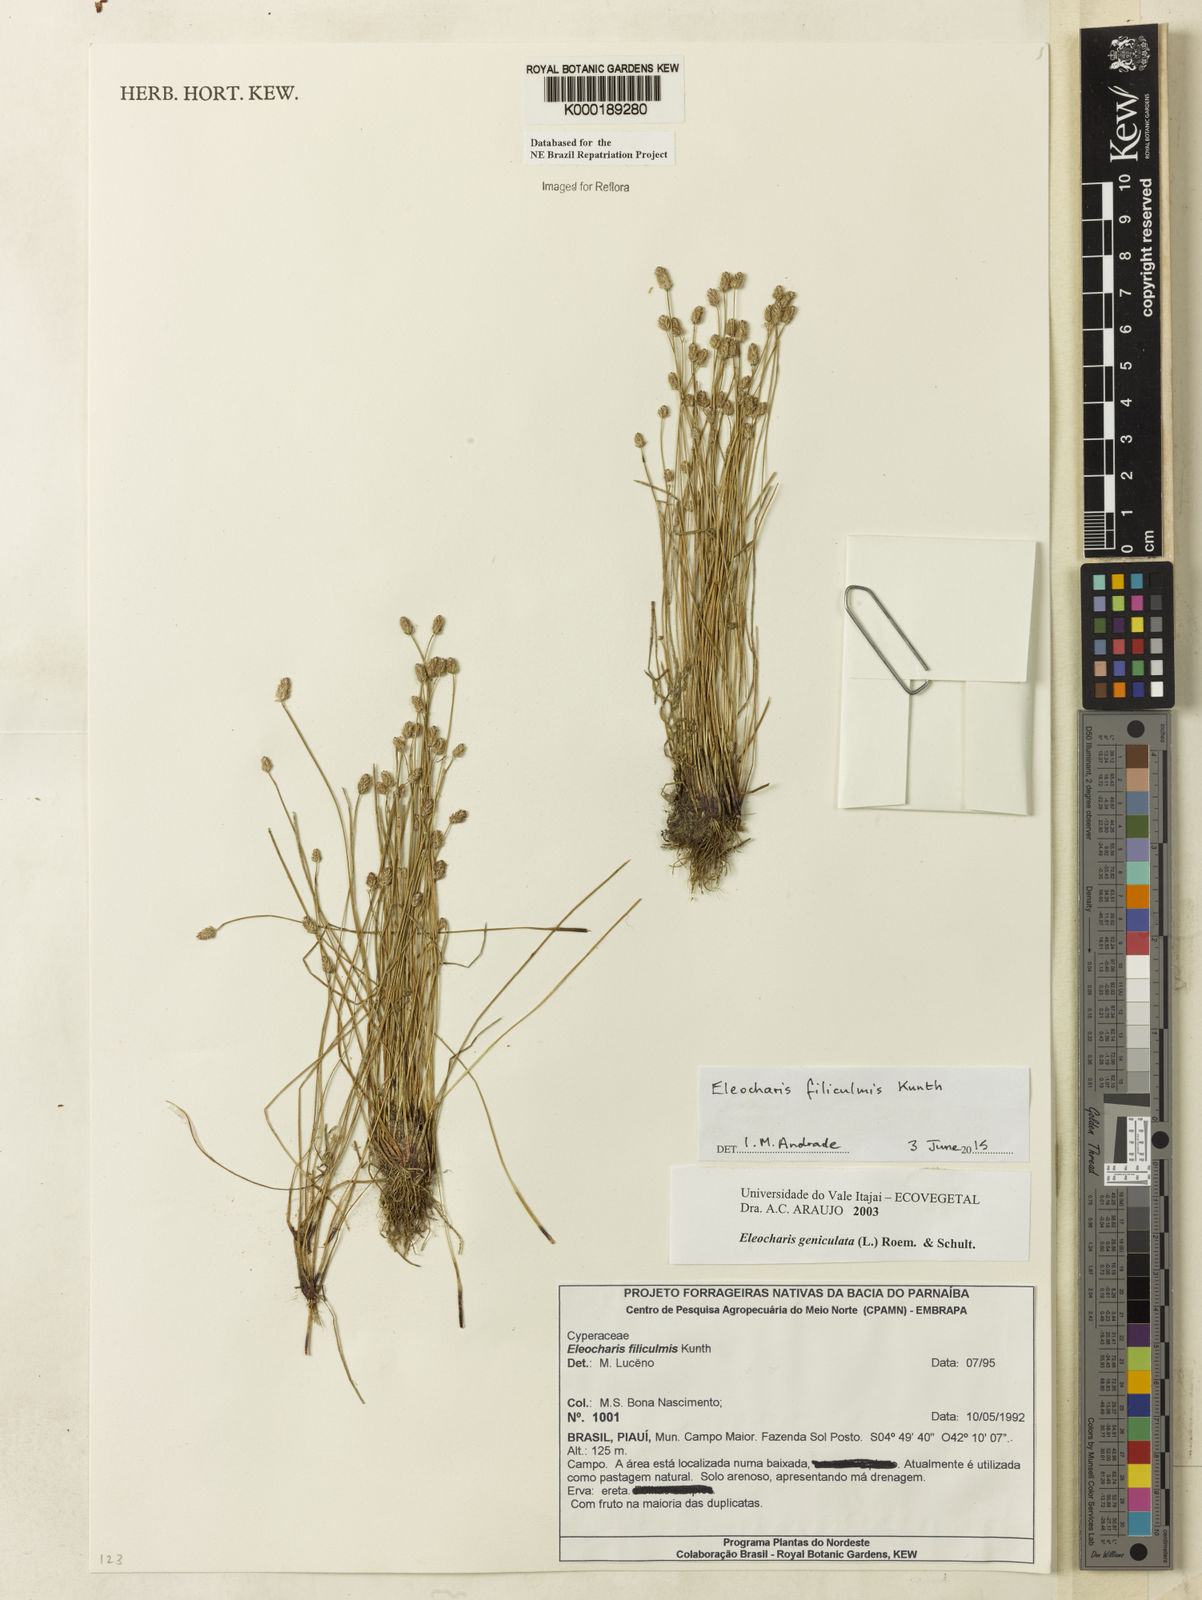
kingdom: Plantae
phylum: Tracheophyta
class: Liliopsida
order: Poales
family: Cyperaceae
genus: Eleocharis
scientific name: Eleocharis geniculata
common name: Canada spikesedge
